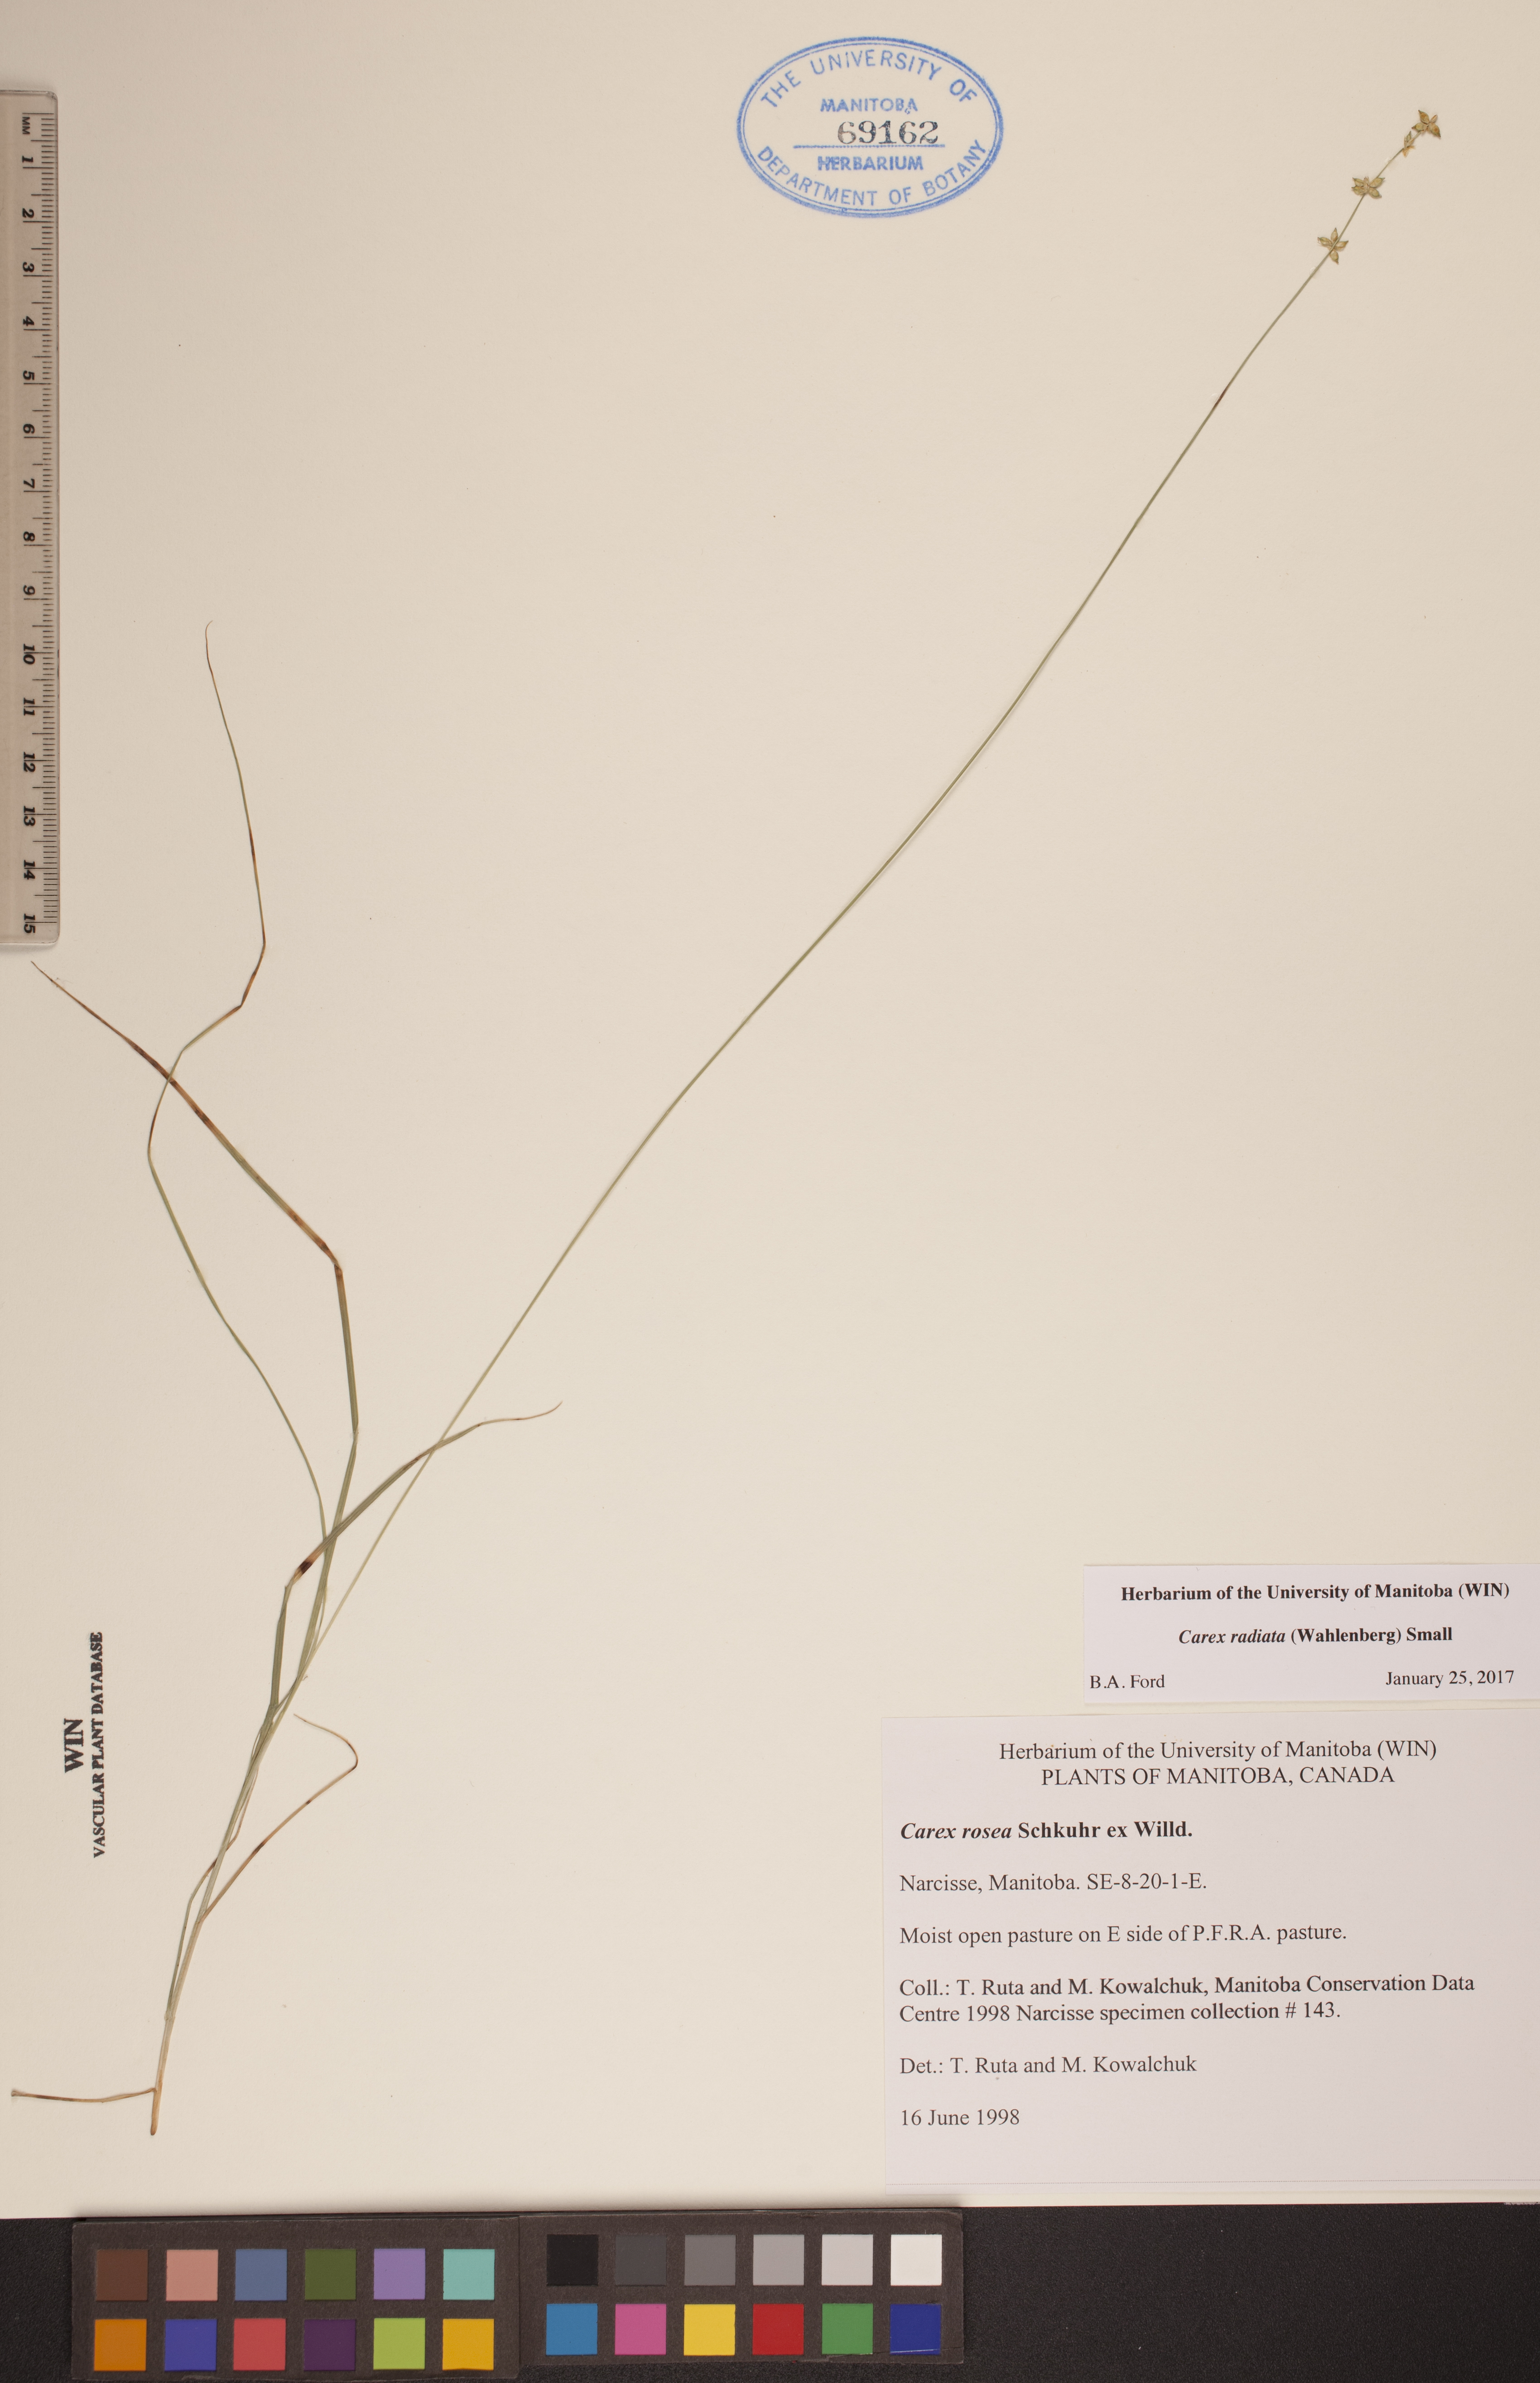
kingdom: Plantae
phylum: Tracheophyta
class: Liliopsida
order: Poales
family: Cyperaceae
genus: Carex
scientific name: Carex radiata
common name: Eastern star sedge
